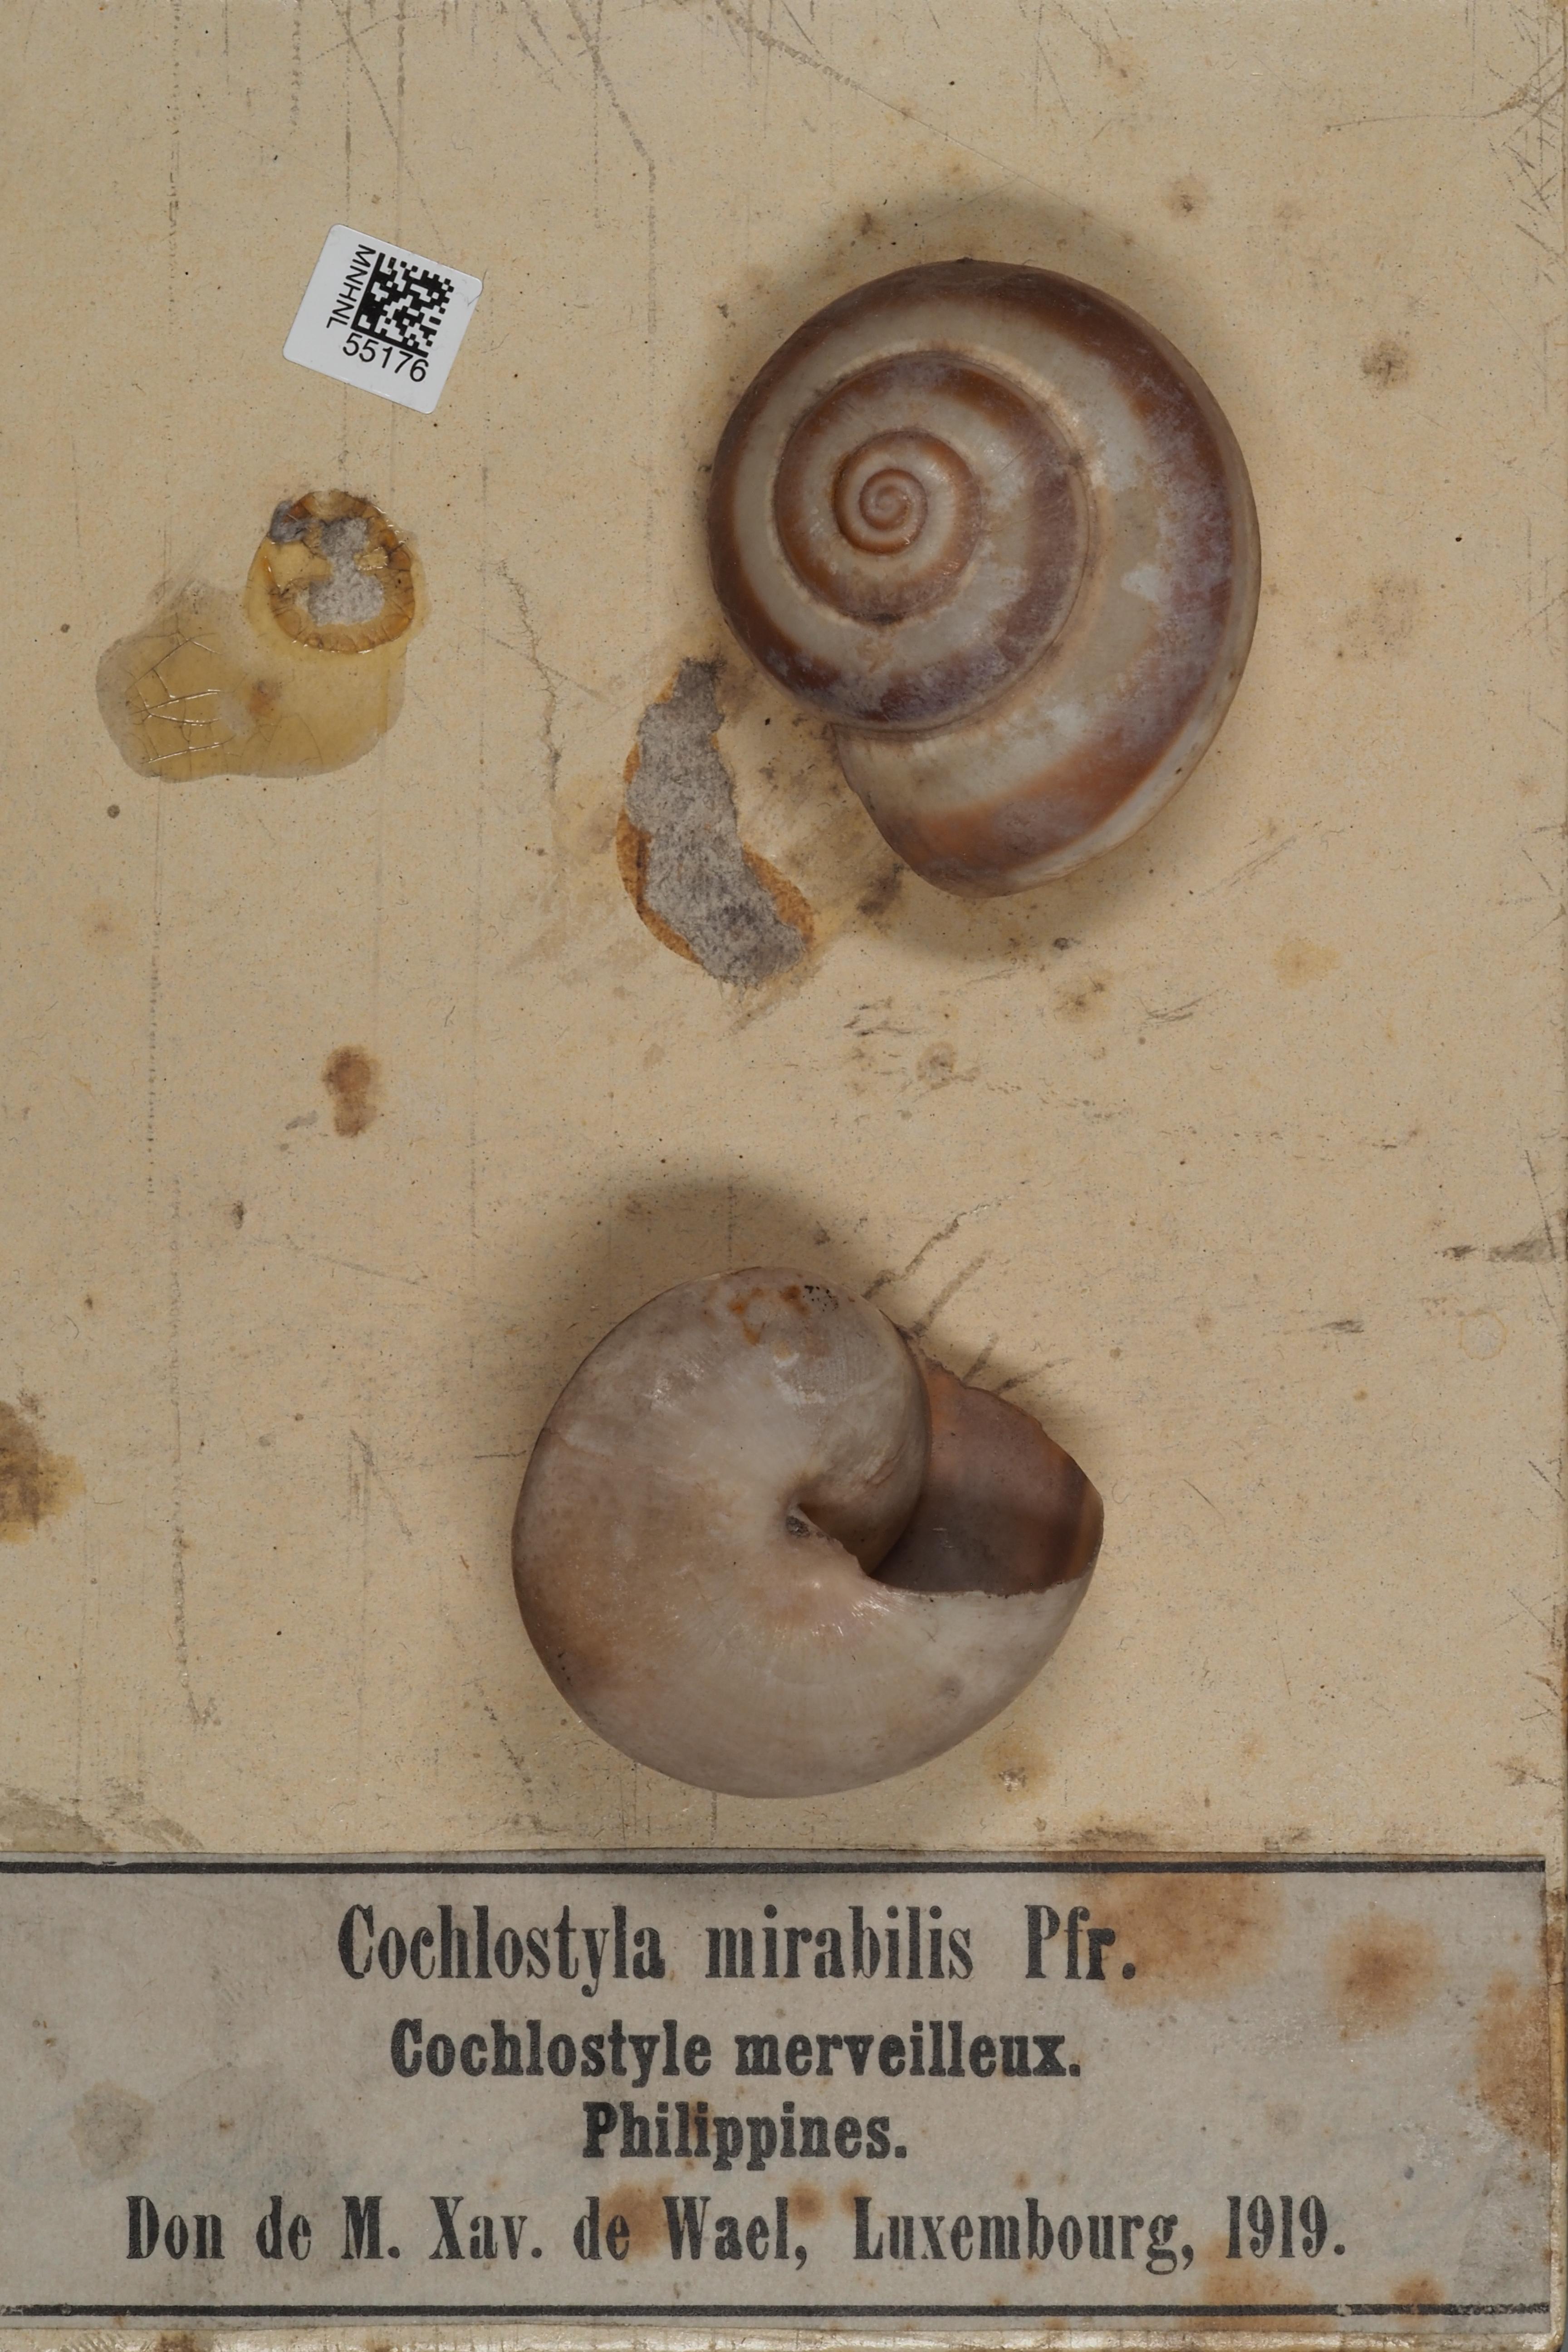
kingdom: Animalia
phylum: Mollusca
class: Gastropoda
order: Stylommatophora
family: Spiraxidae
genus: Spiraxis
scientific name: Spiraxis mirabilis
